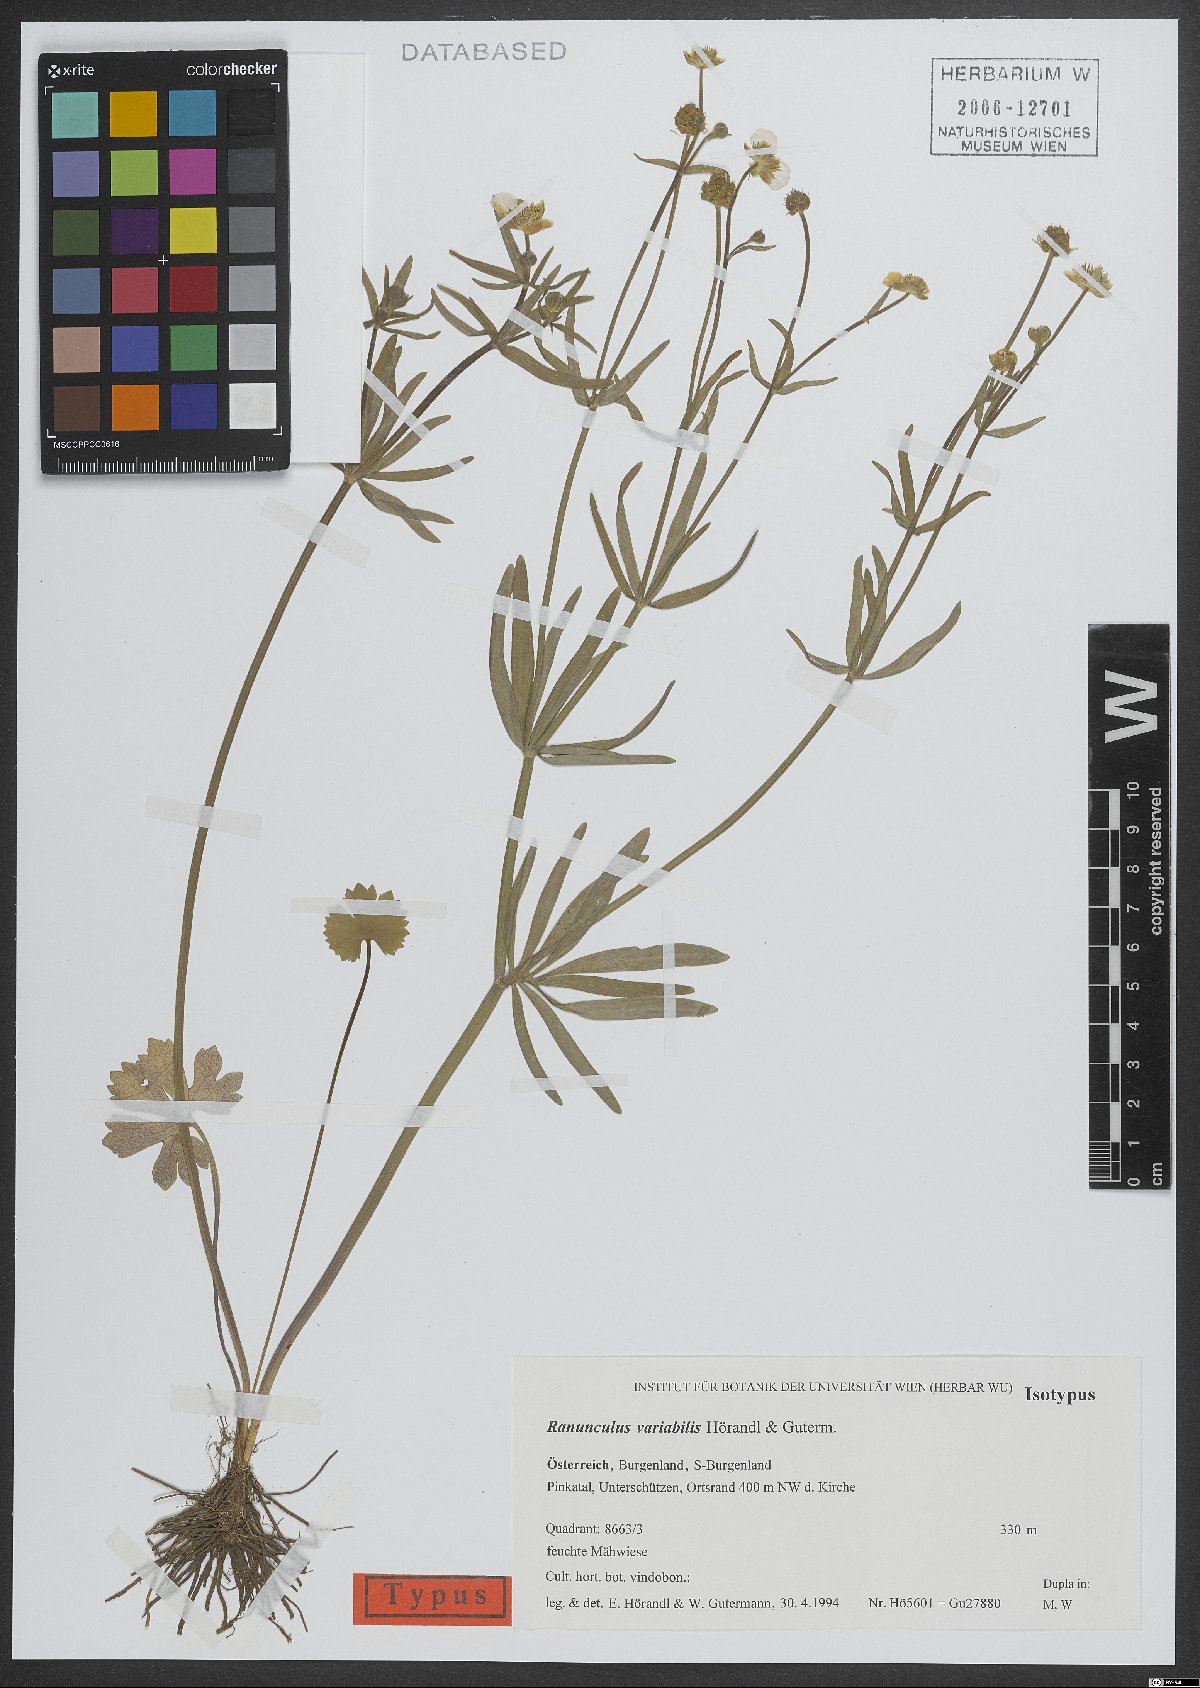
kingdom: Plantae
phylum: Tracheophyta
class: Magnoliopsida
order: Ranunculales
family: Ranunculaceae
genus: Ranunculus
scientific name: Ranunculus variabilis
